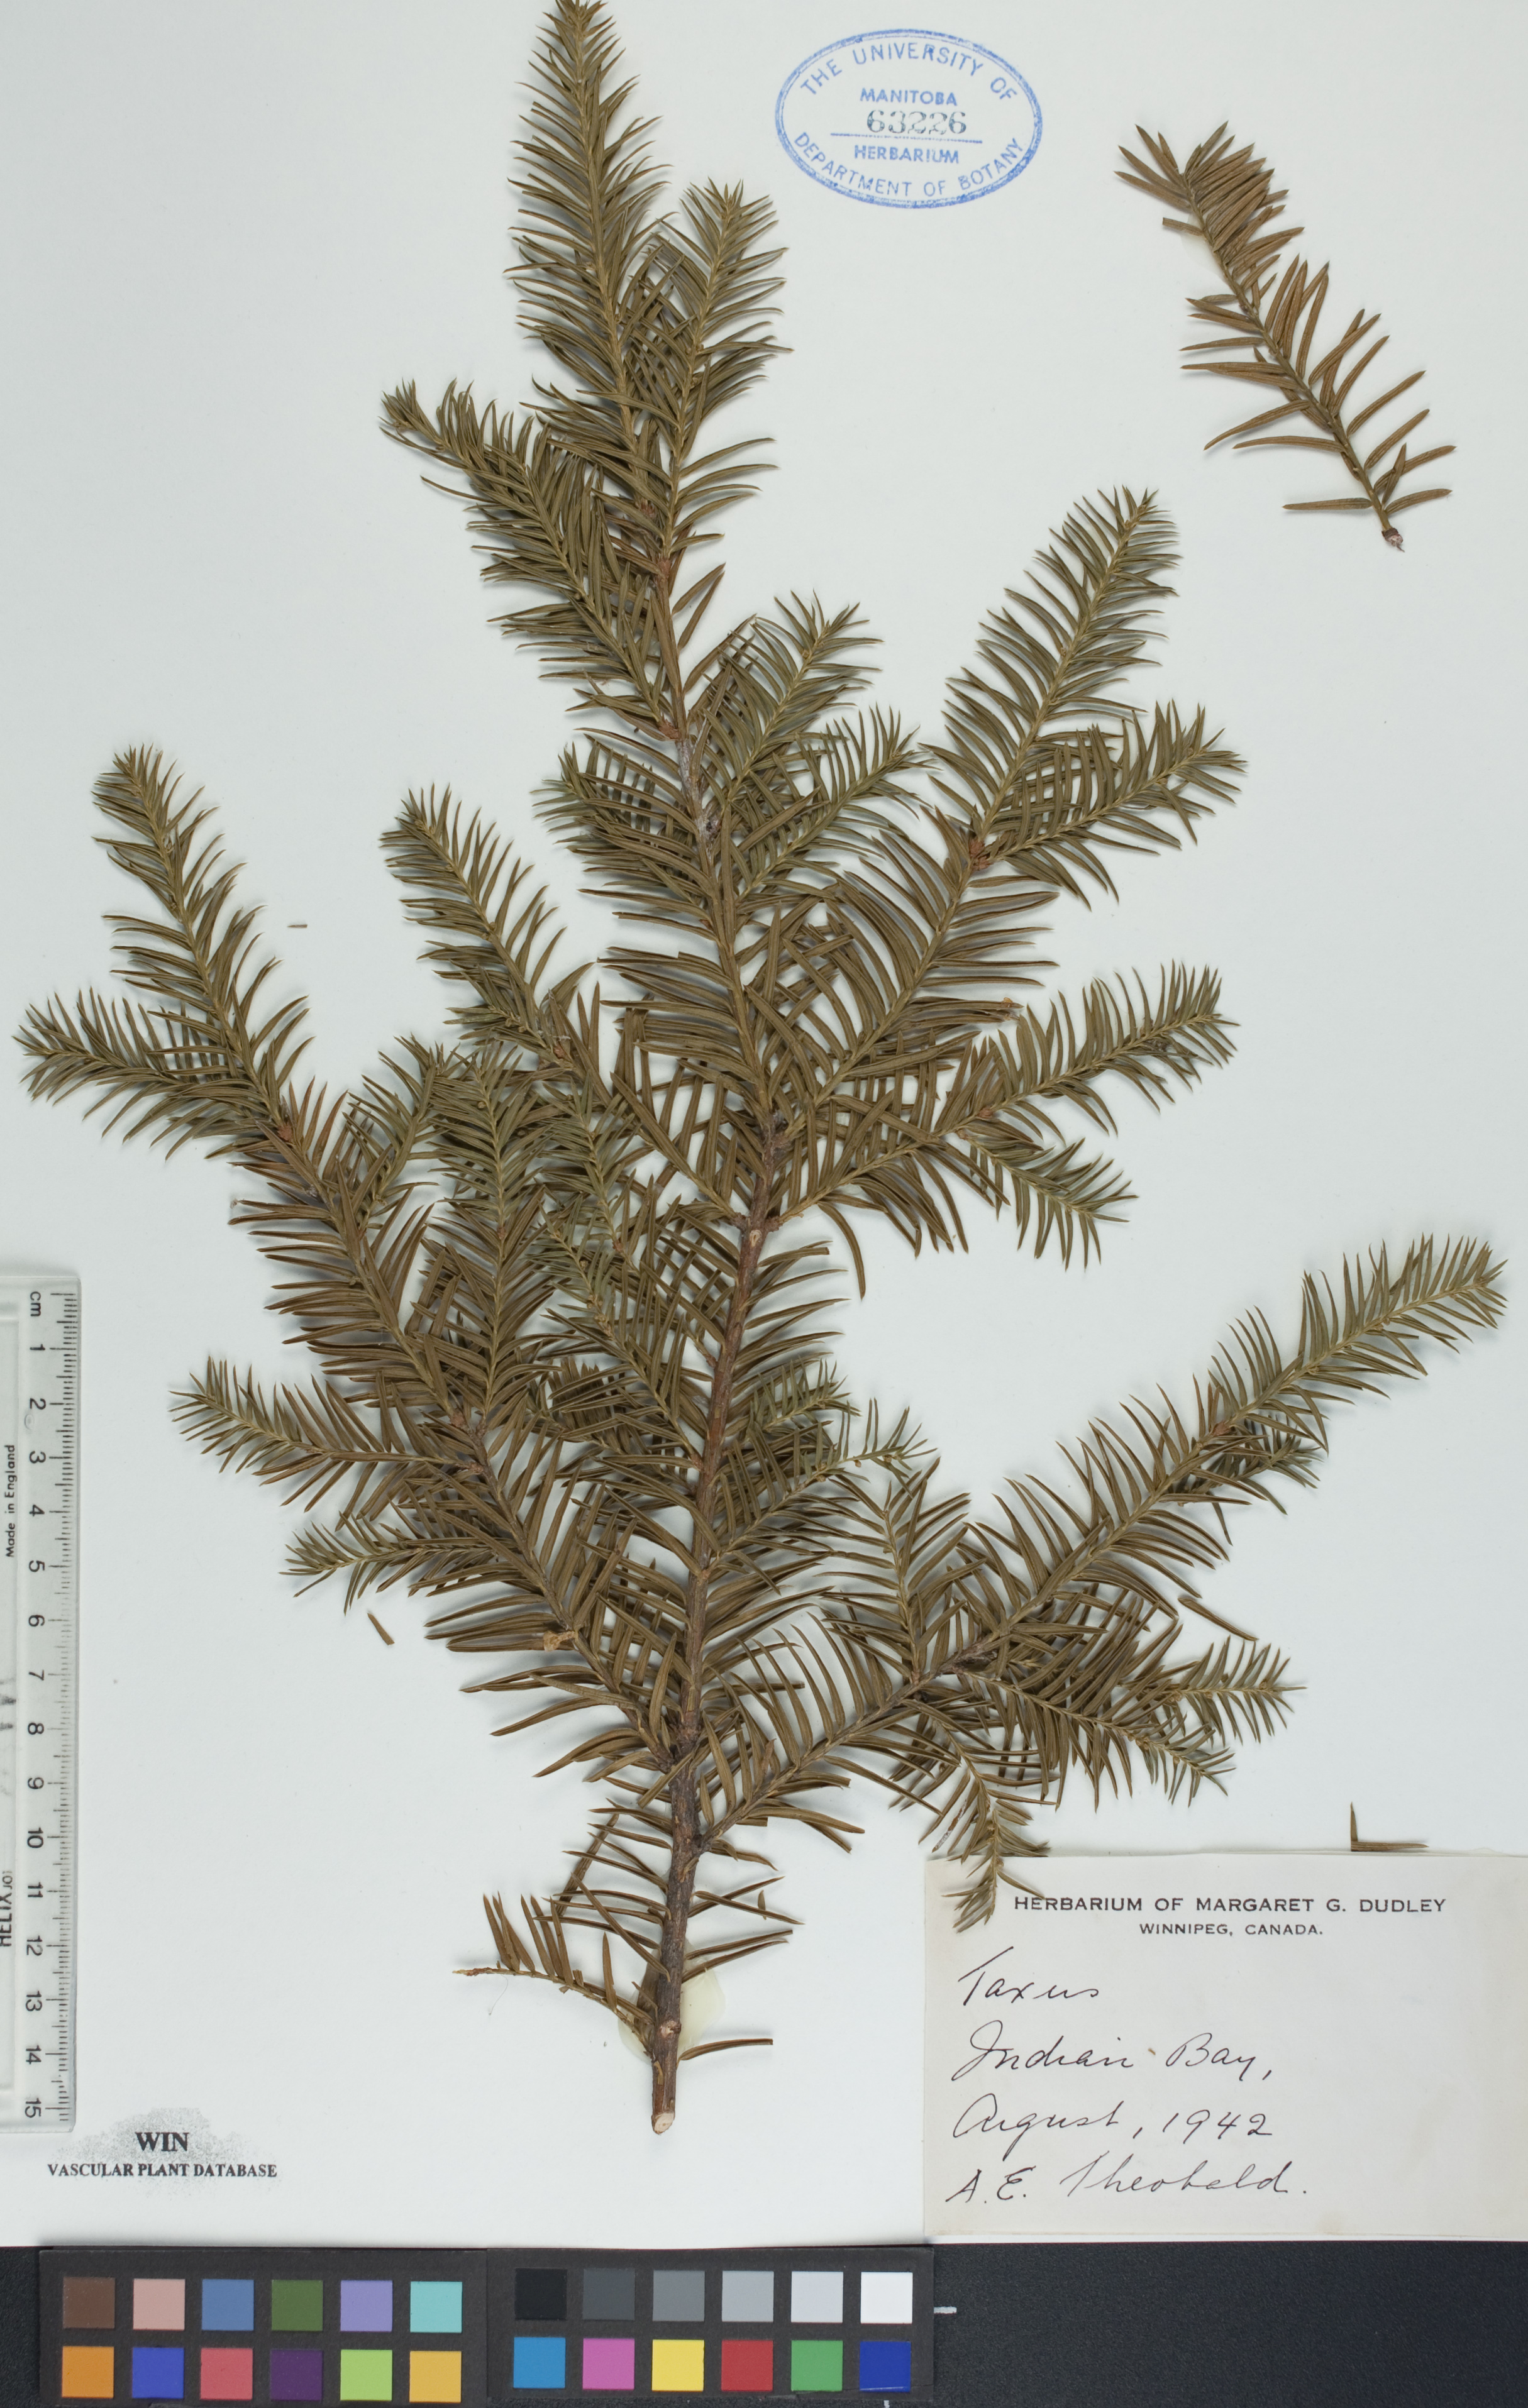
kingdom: Plantae
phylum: Tracheophyta
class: Pinopsida
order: Pinales
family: Taxaceae
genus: Taxus
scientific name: Taxus canadensis
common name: American yew
